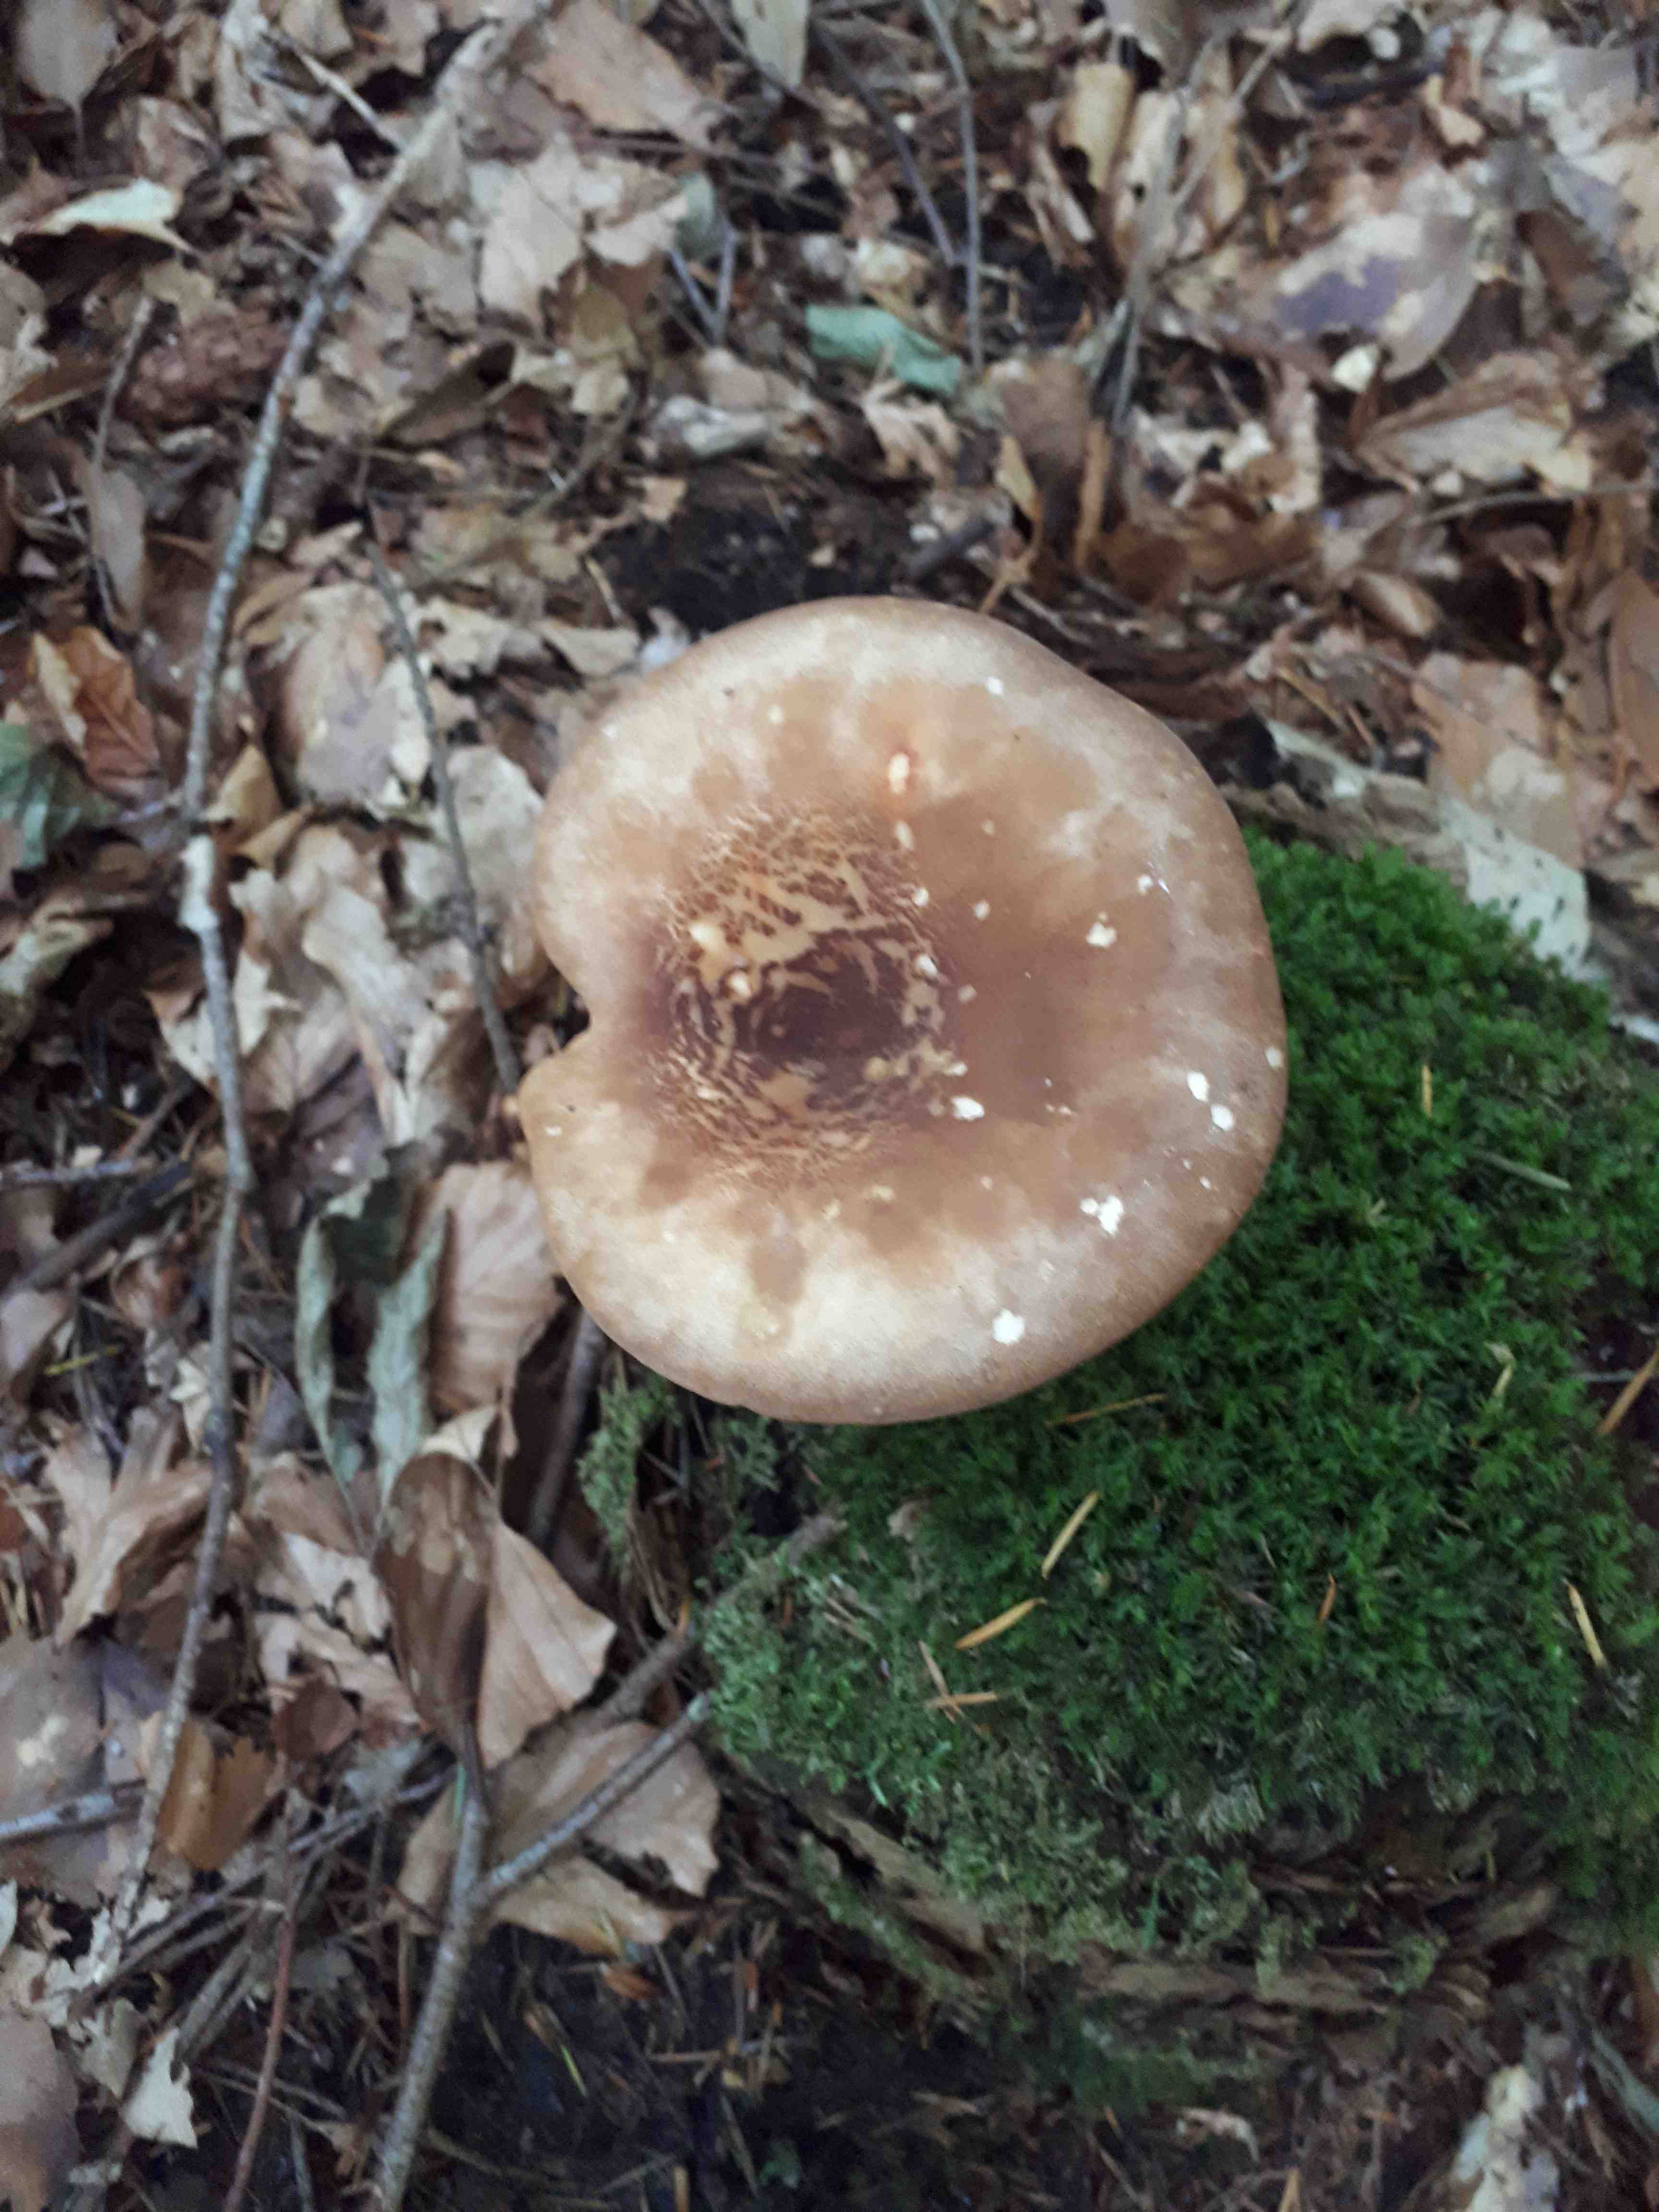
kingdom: Fungi
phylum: Basidiomycota
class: Agaricomycetes
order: Boletales
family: Tapinellaceae
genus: Tapinella
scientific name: Tapinella atrotomentosa
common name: sortfiltet viftesvamp
